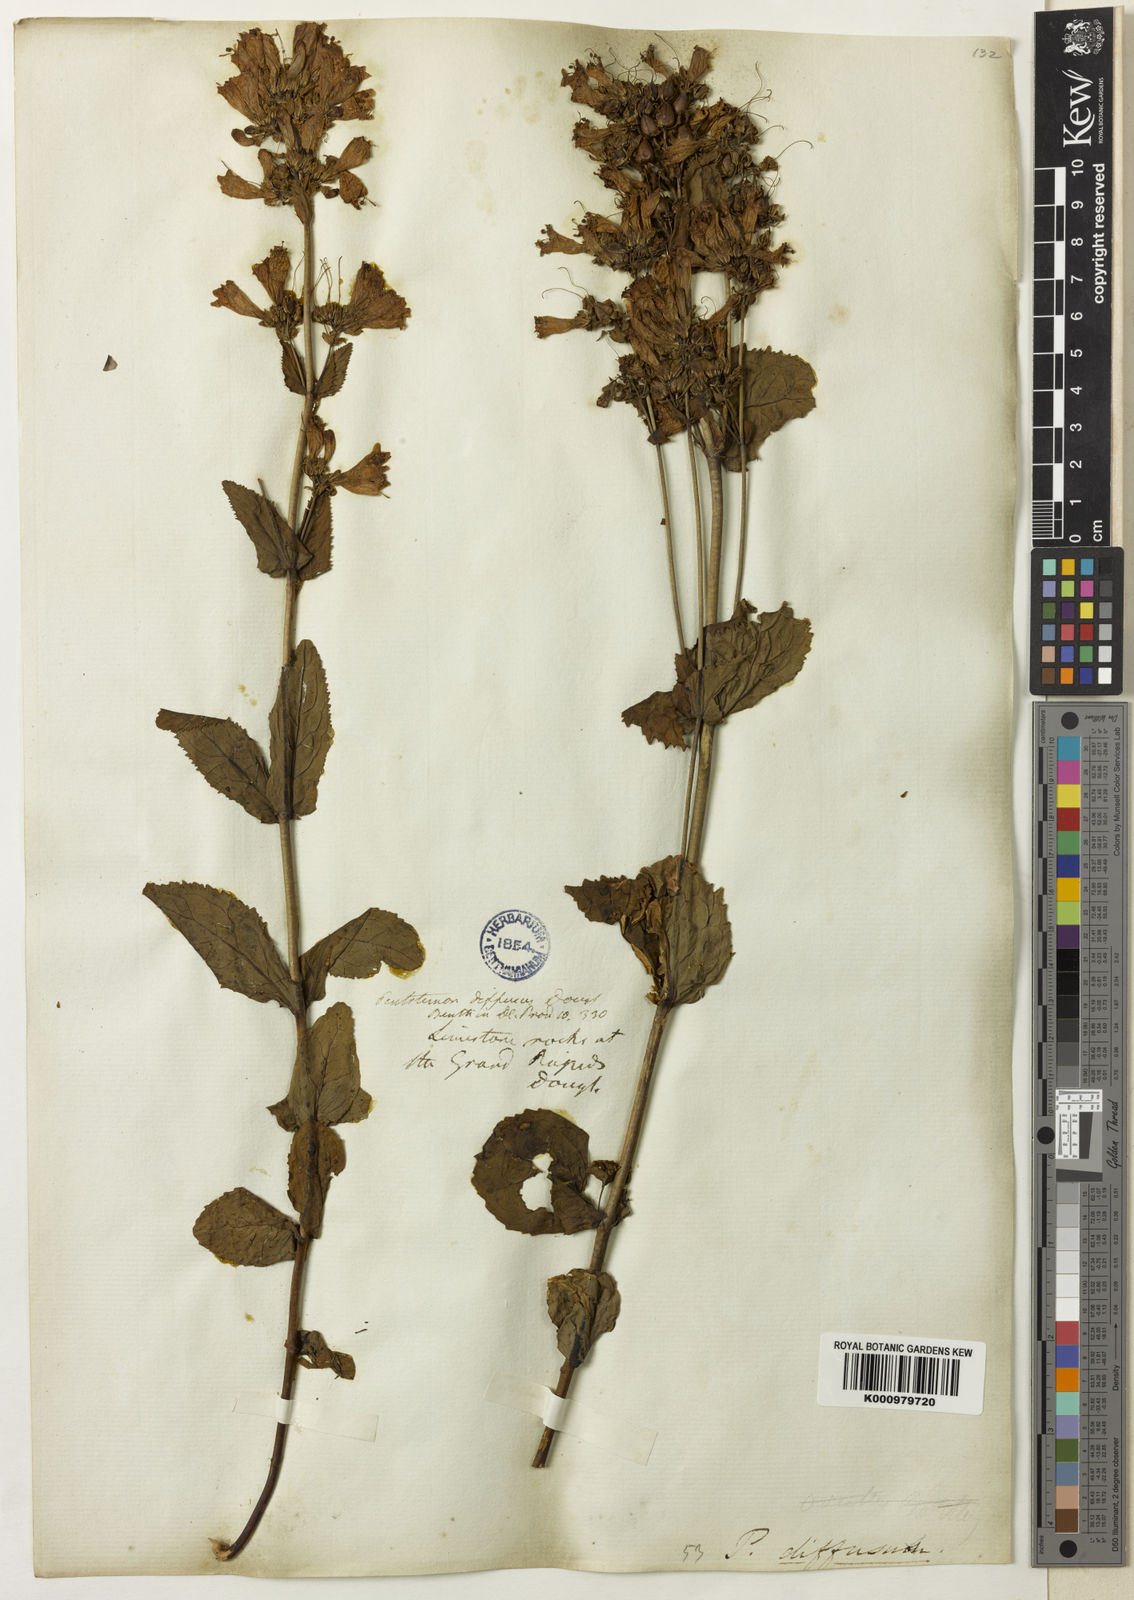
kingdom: Plantae
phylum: Tracheophyta
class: Magnoliopsida
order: Lamiales
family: Plantaginaceae
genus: Penstemon
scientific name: Penstemon serrulatus
